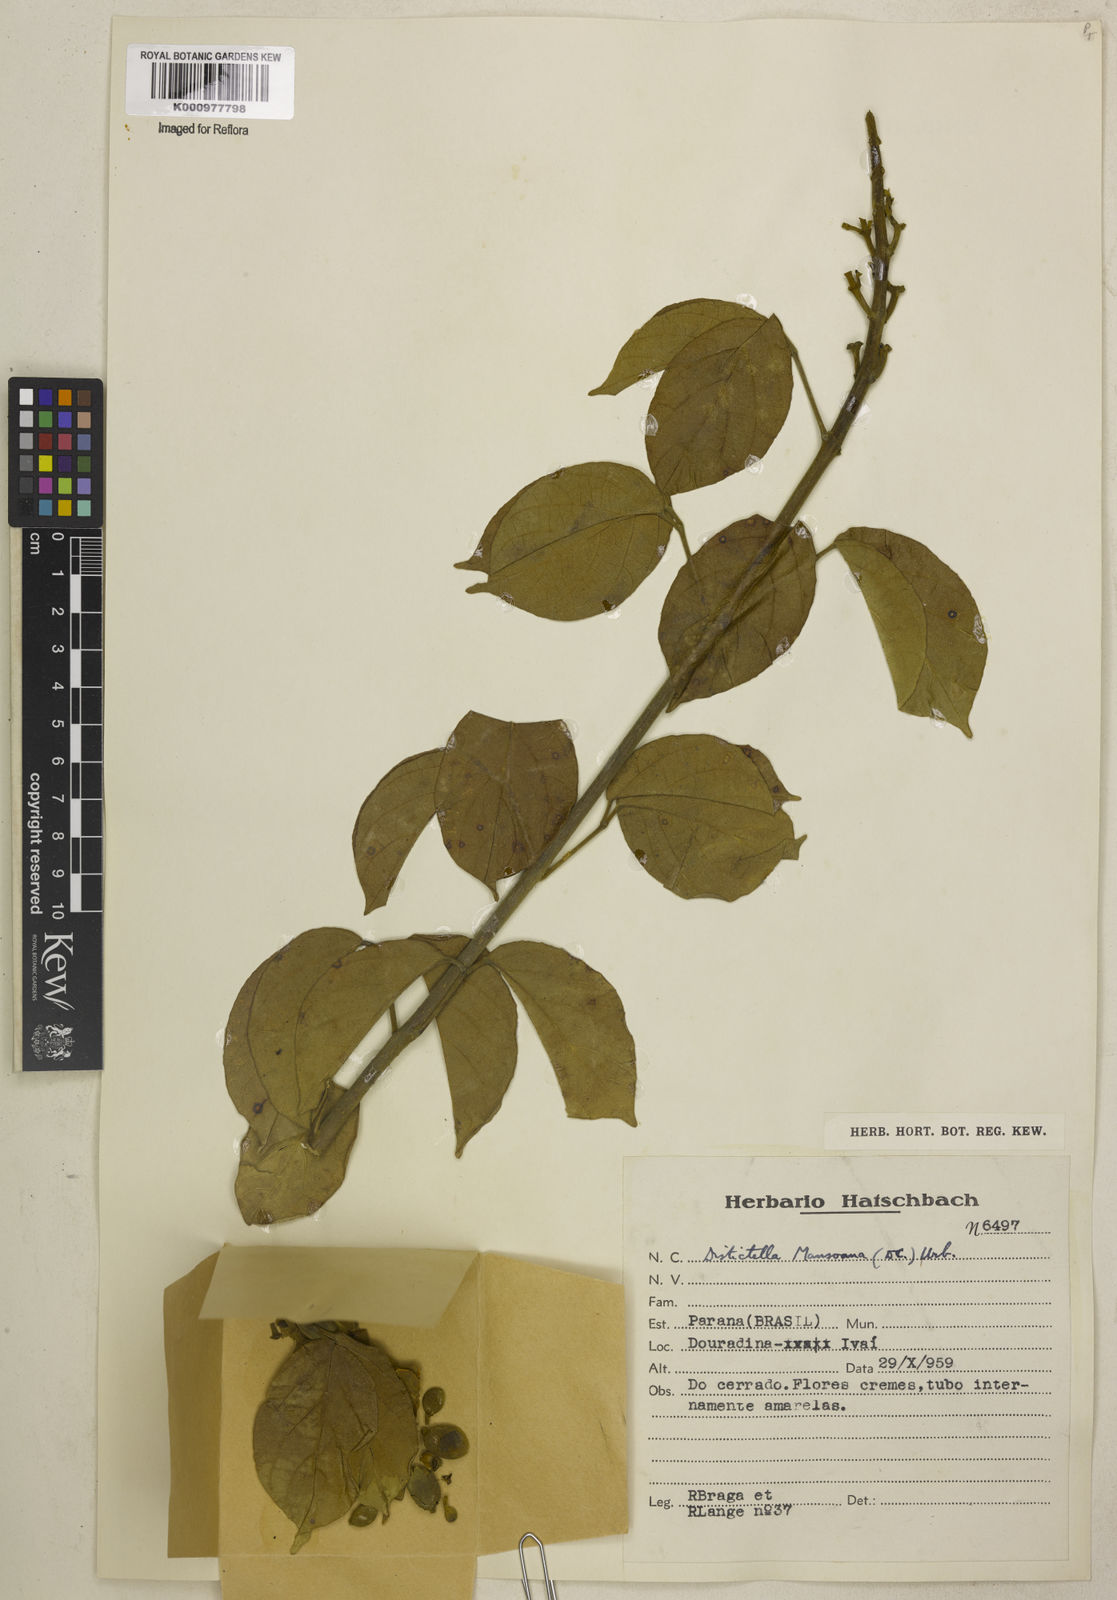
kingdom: Plantae
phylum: Tracheophyta
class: Magnoliopsida
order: Lamiales
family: Bignoniaceae
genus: Amphilophium
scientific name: Amphilophium mansoanum
